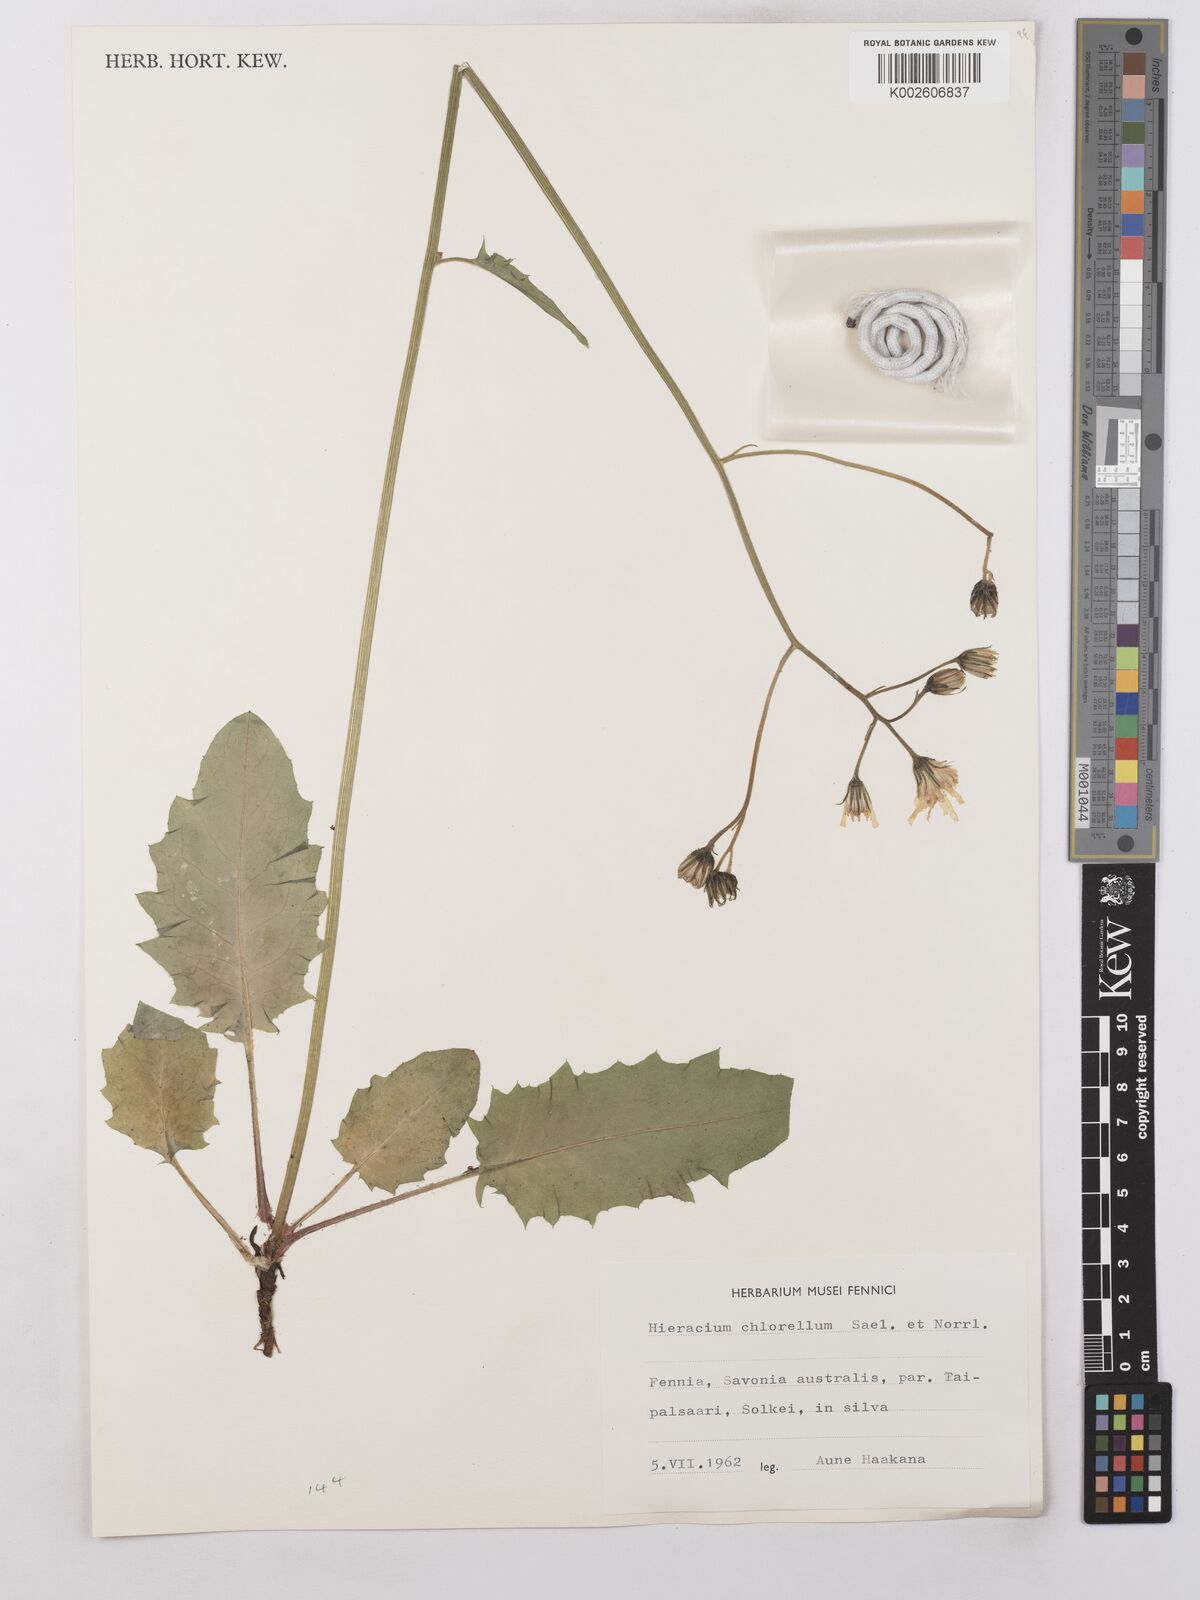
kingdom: Plantae
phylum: Tracheophyta
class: Magnoliopsida
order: Asterales
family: Asteraceae
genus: Hieracium
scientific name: Hieracium chlorellum
